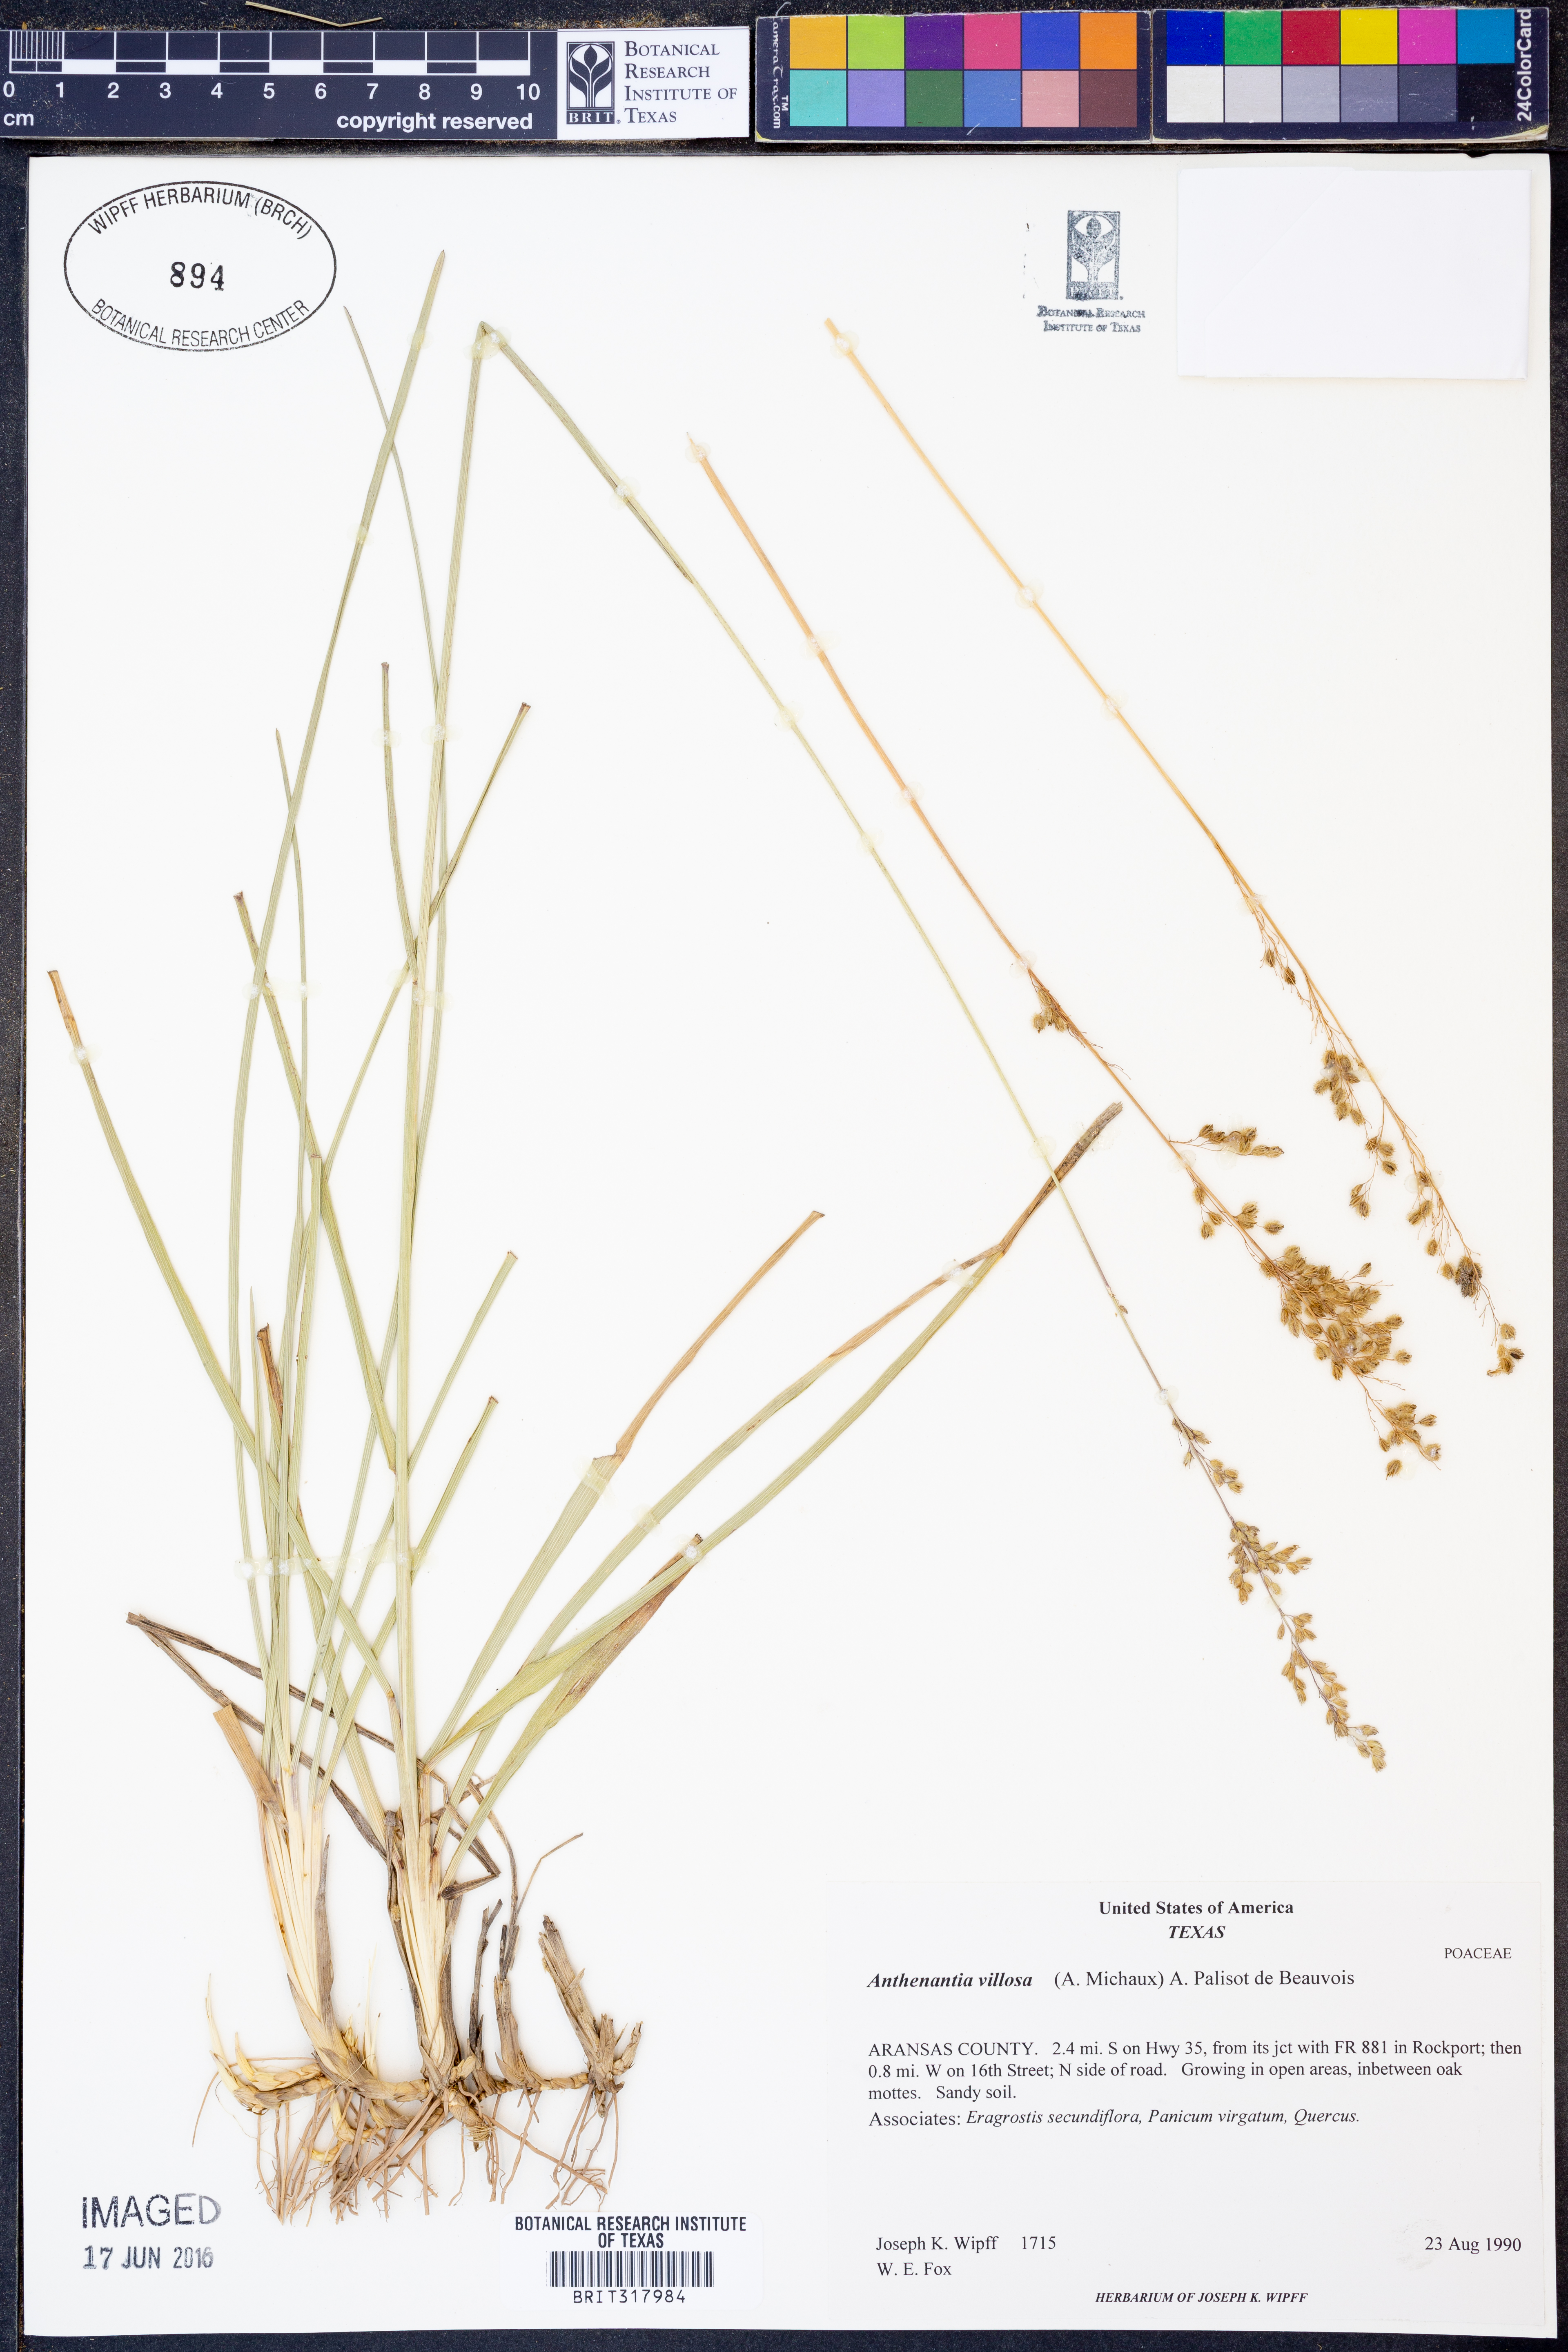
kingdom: Plantae
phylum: Tracheophyta
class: Liliopsida
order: Poales
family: Poaceae
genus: Anthenantia
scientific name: Anthenantia villosa
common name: Green silkyscale
